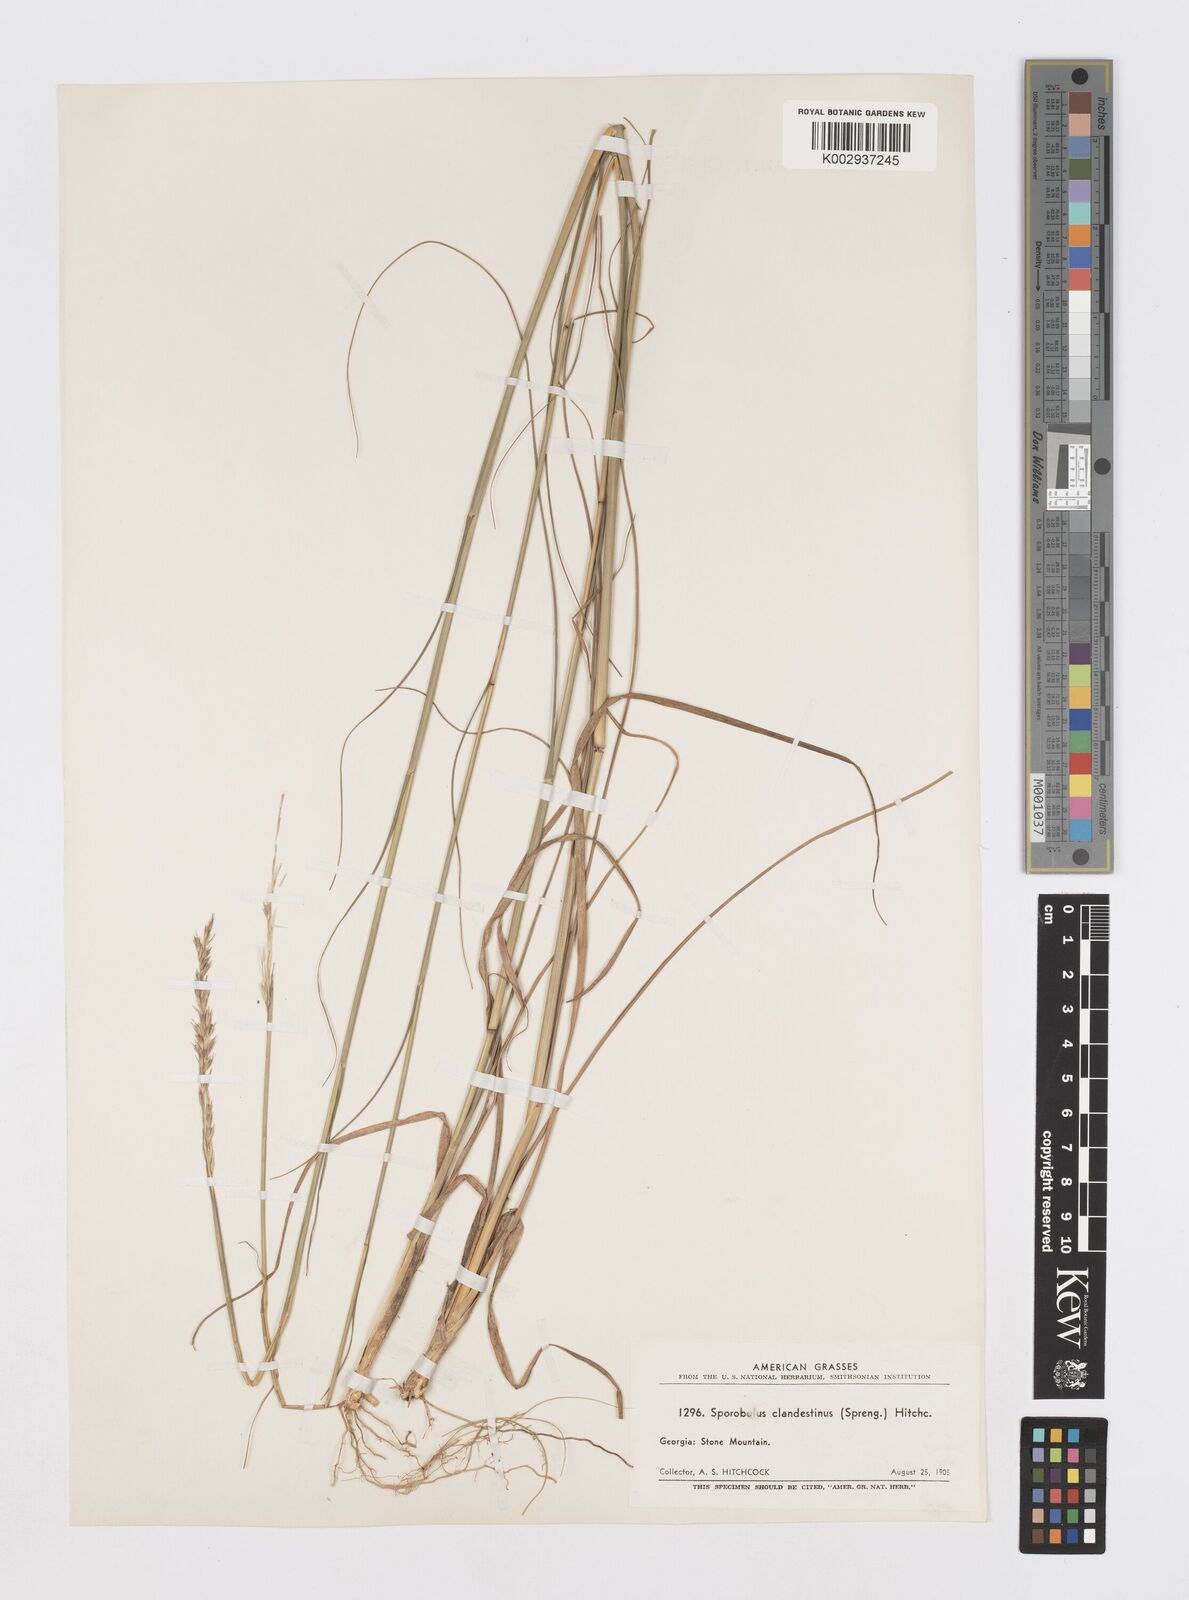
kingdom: Plantae
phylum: Tracheophyta
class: Liliopsida
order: Poales
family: Poaceae
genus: Sporobolus
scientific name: Sporobolus clandestinus
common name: Hidden dropseed
